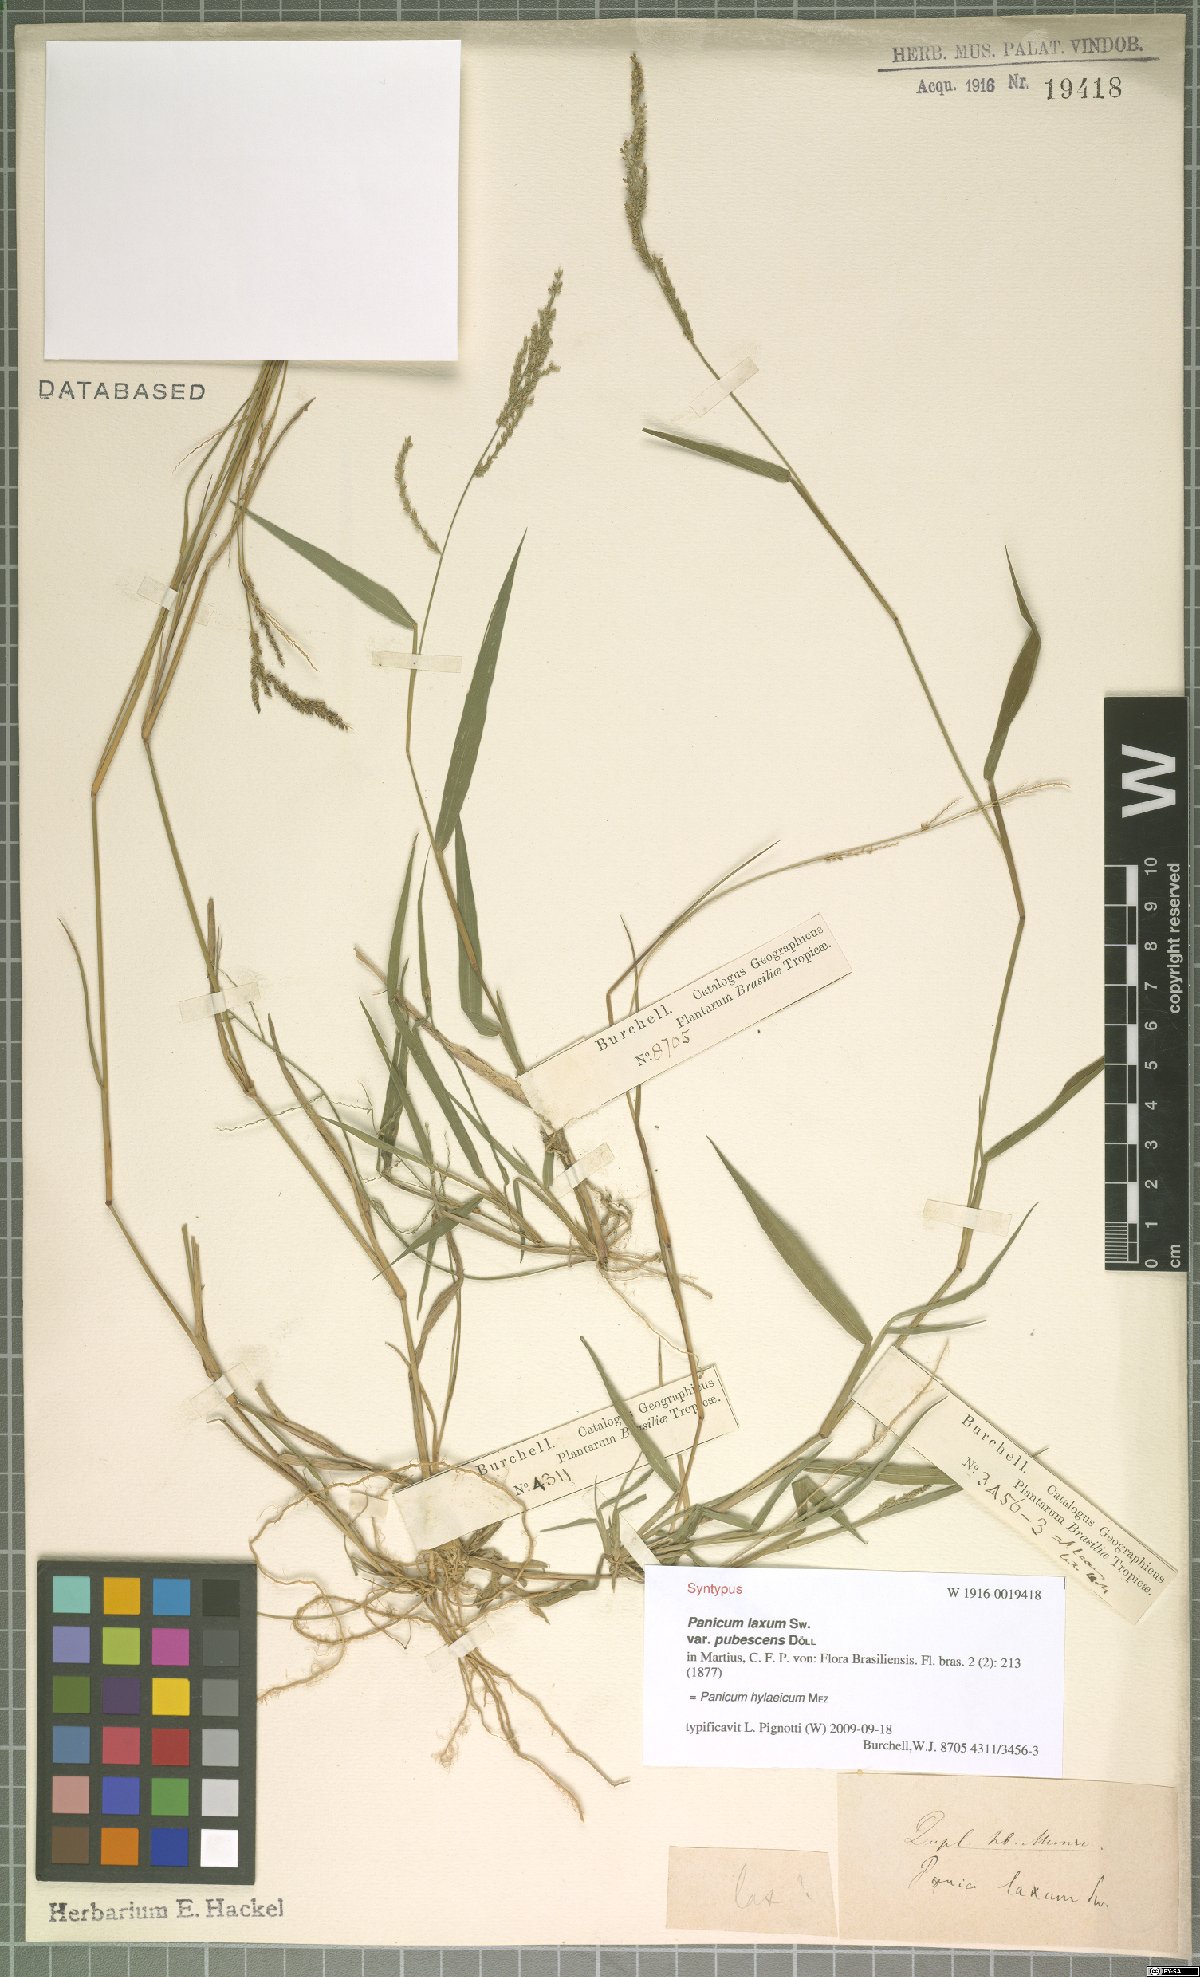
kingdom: Plantae
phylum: Tracheophyta
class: Liliopsida
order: Poales
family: Poaceae
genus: Rugoloa
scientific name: Rugoloa hylaeica
